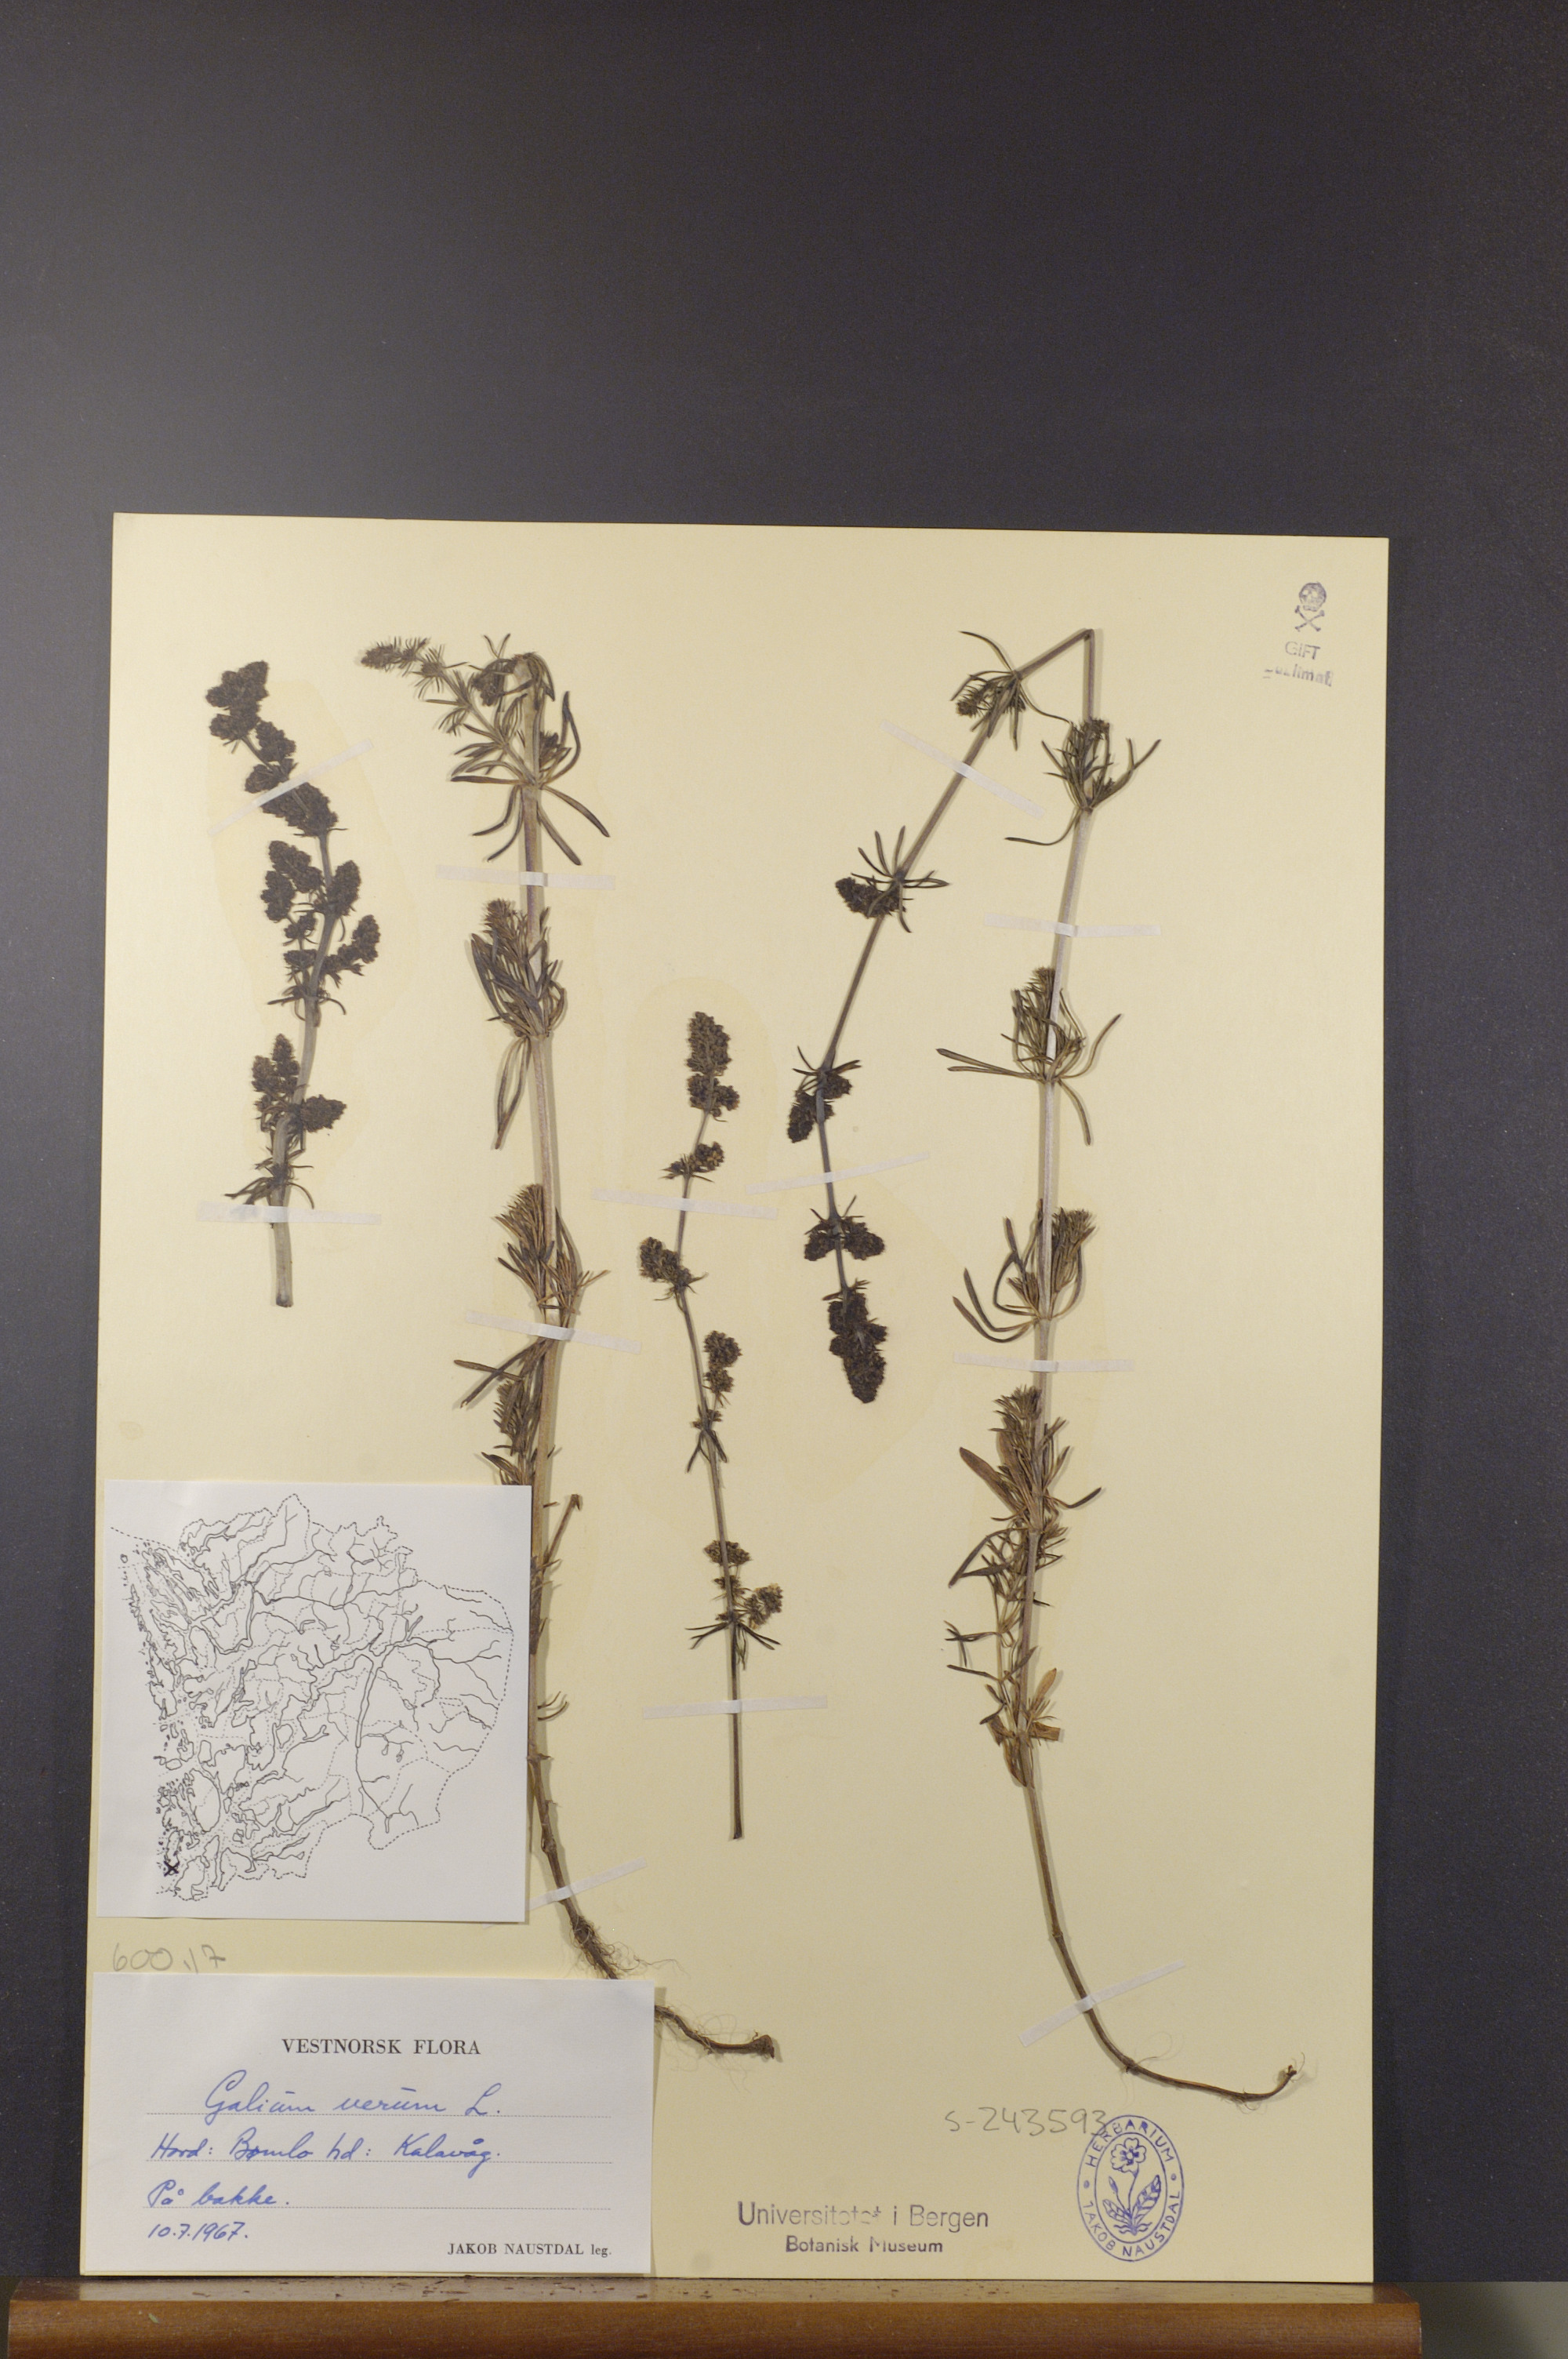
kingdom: Plantae
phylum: Tracheophyta
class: Magnoliopsida
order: Gentianales
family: Rubiaceae
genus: Galium
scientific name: Galium verum
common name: Lady's bedstraw
